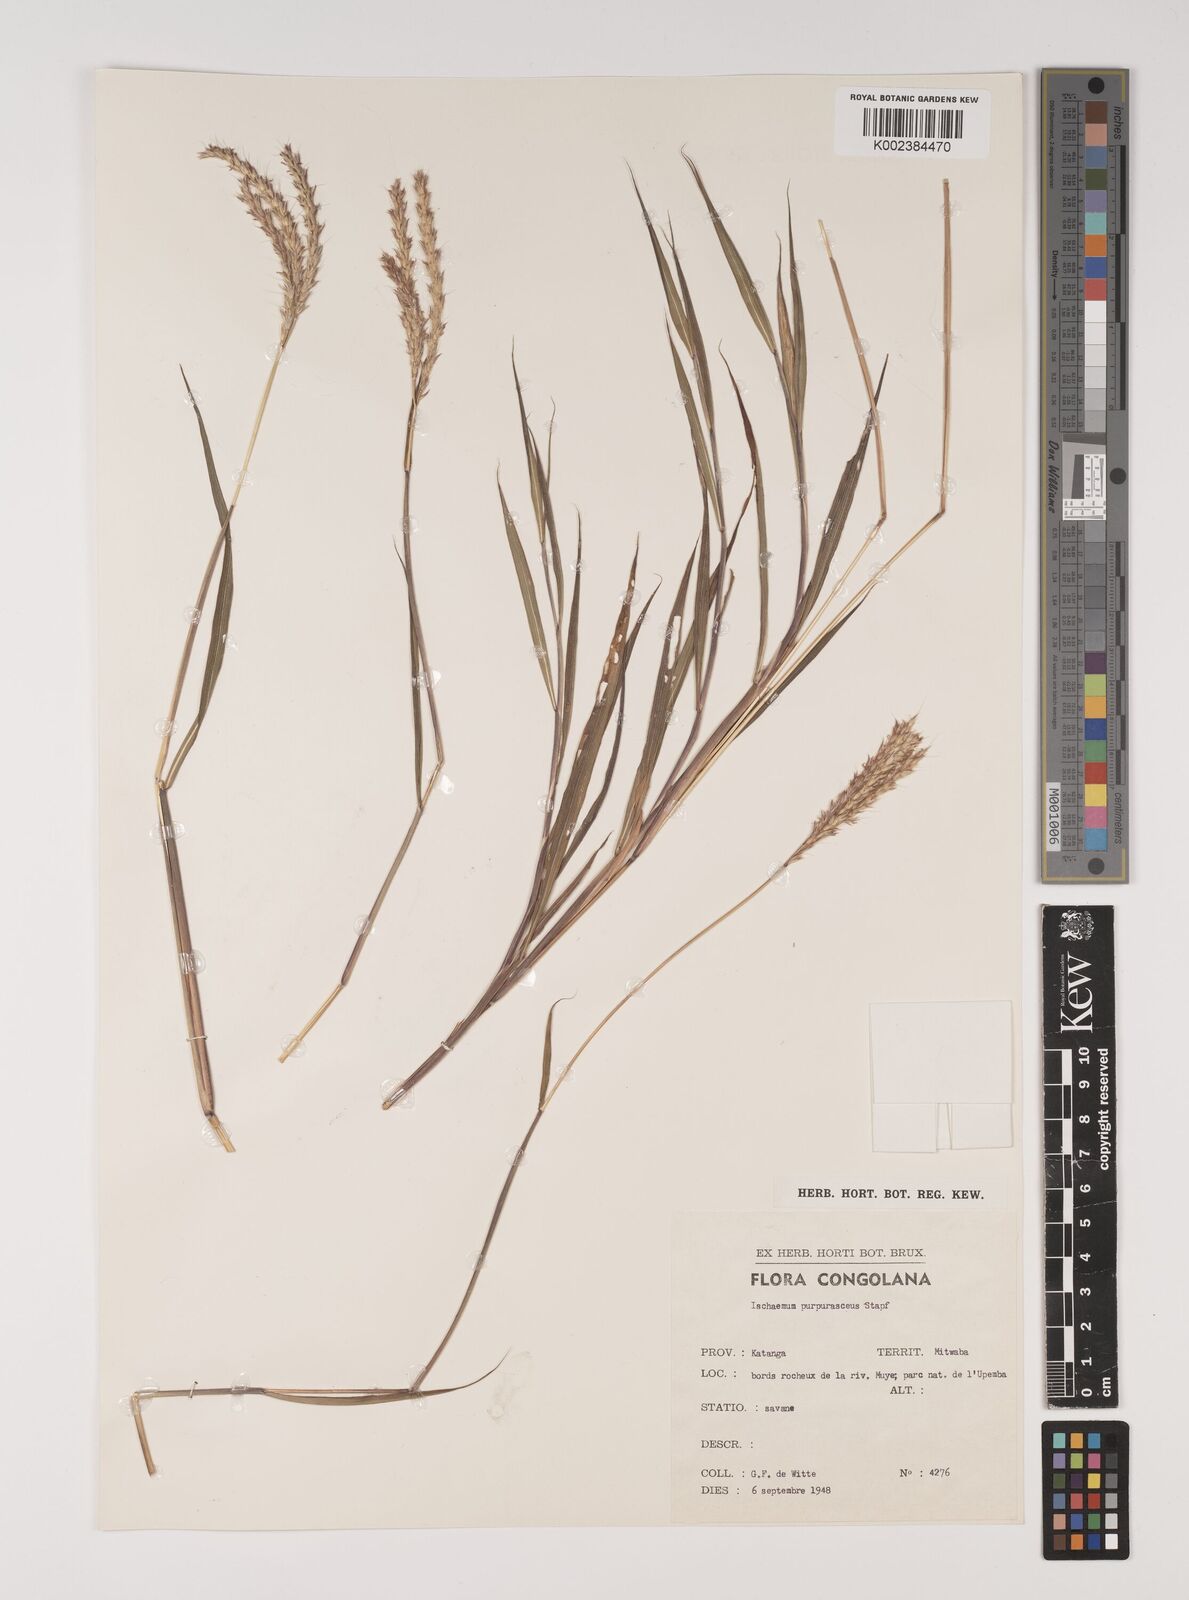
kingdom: Plantae
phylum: Tracheophyta
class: Liliopsida
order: Poales
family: Poaceae
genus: Ischaemum
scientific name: Ischaemum polystachyum
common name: Paddle grass
